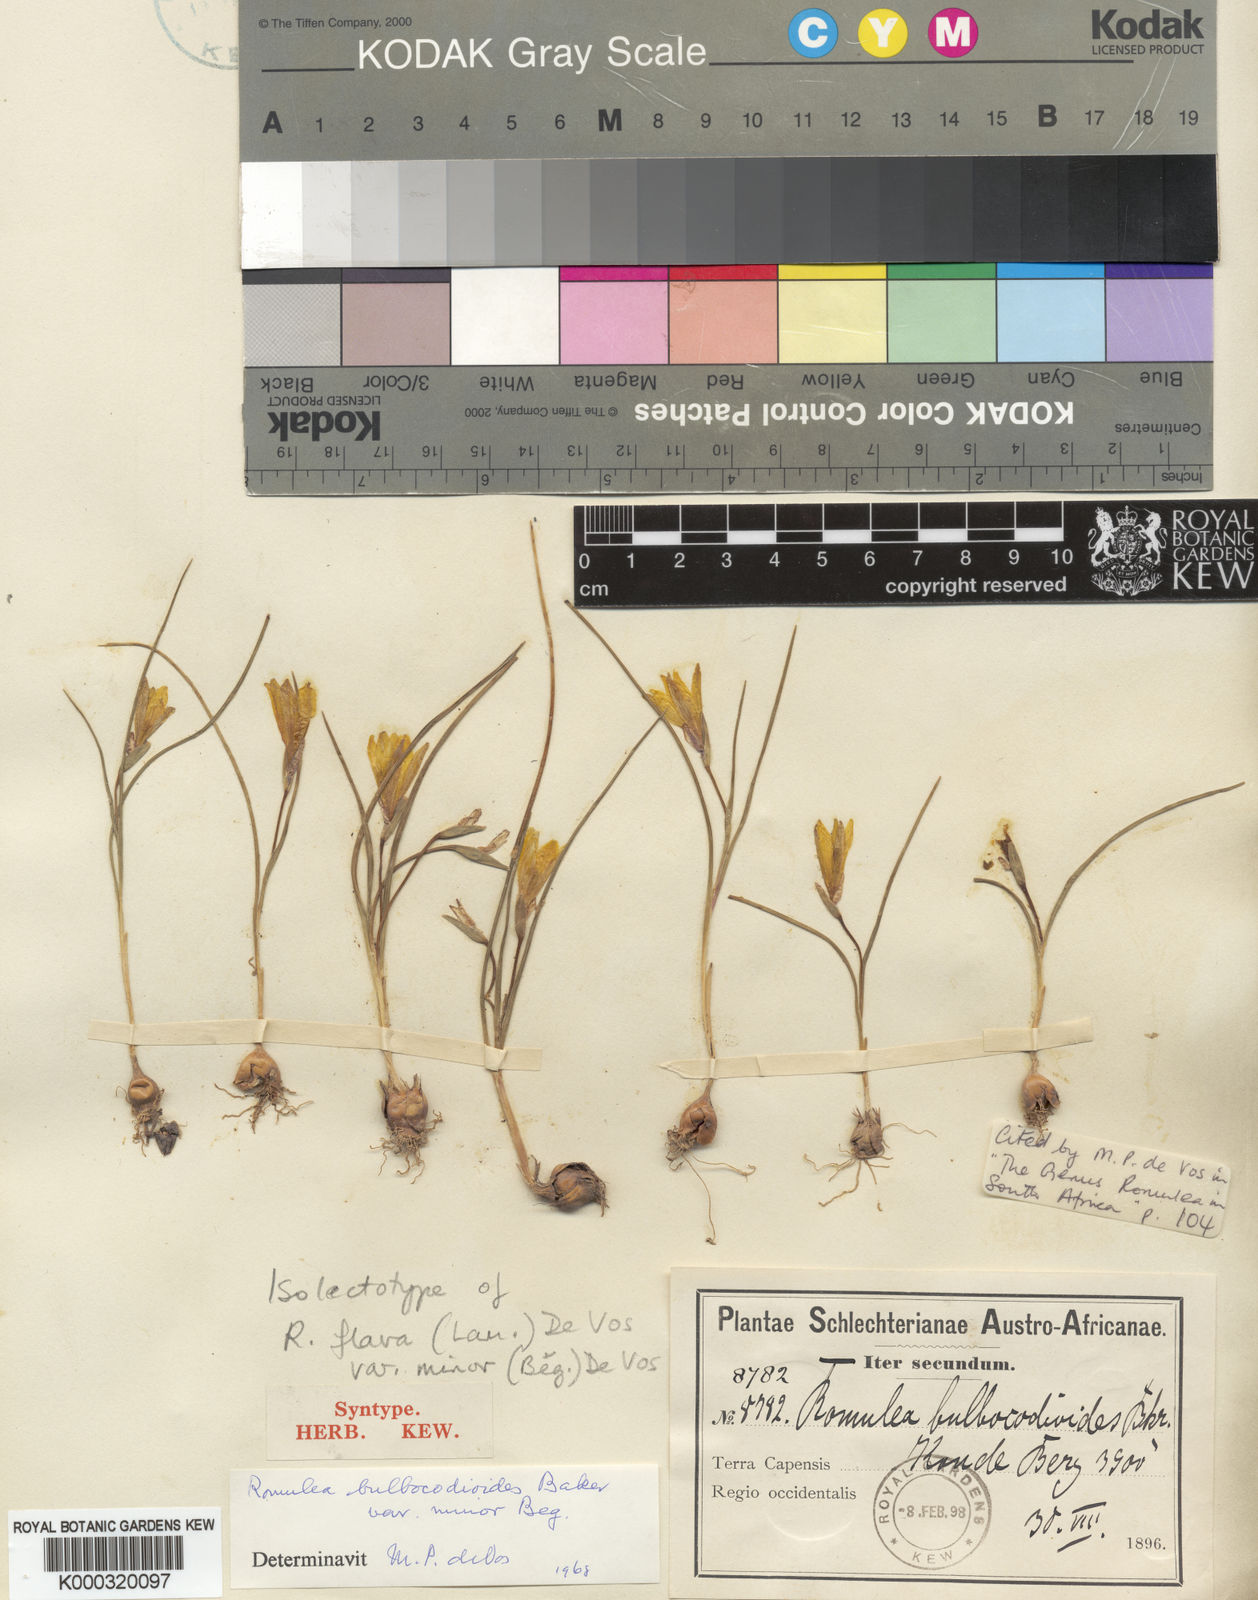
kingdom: Plantae
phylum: Tracheophyta
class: Liliopsida
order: Asparagales
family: Iridaceae
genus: Romulea
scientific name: Romulea flava
